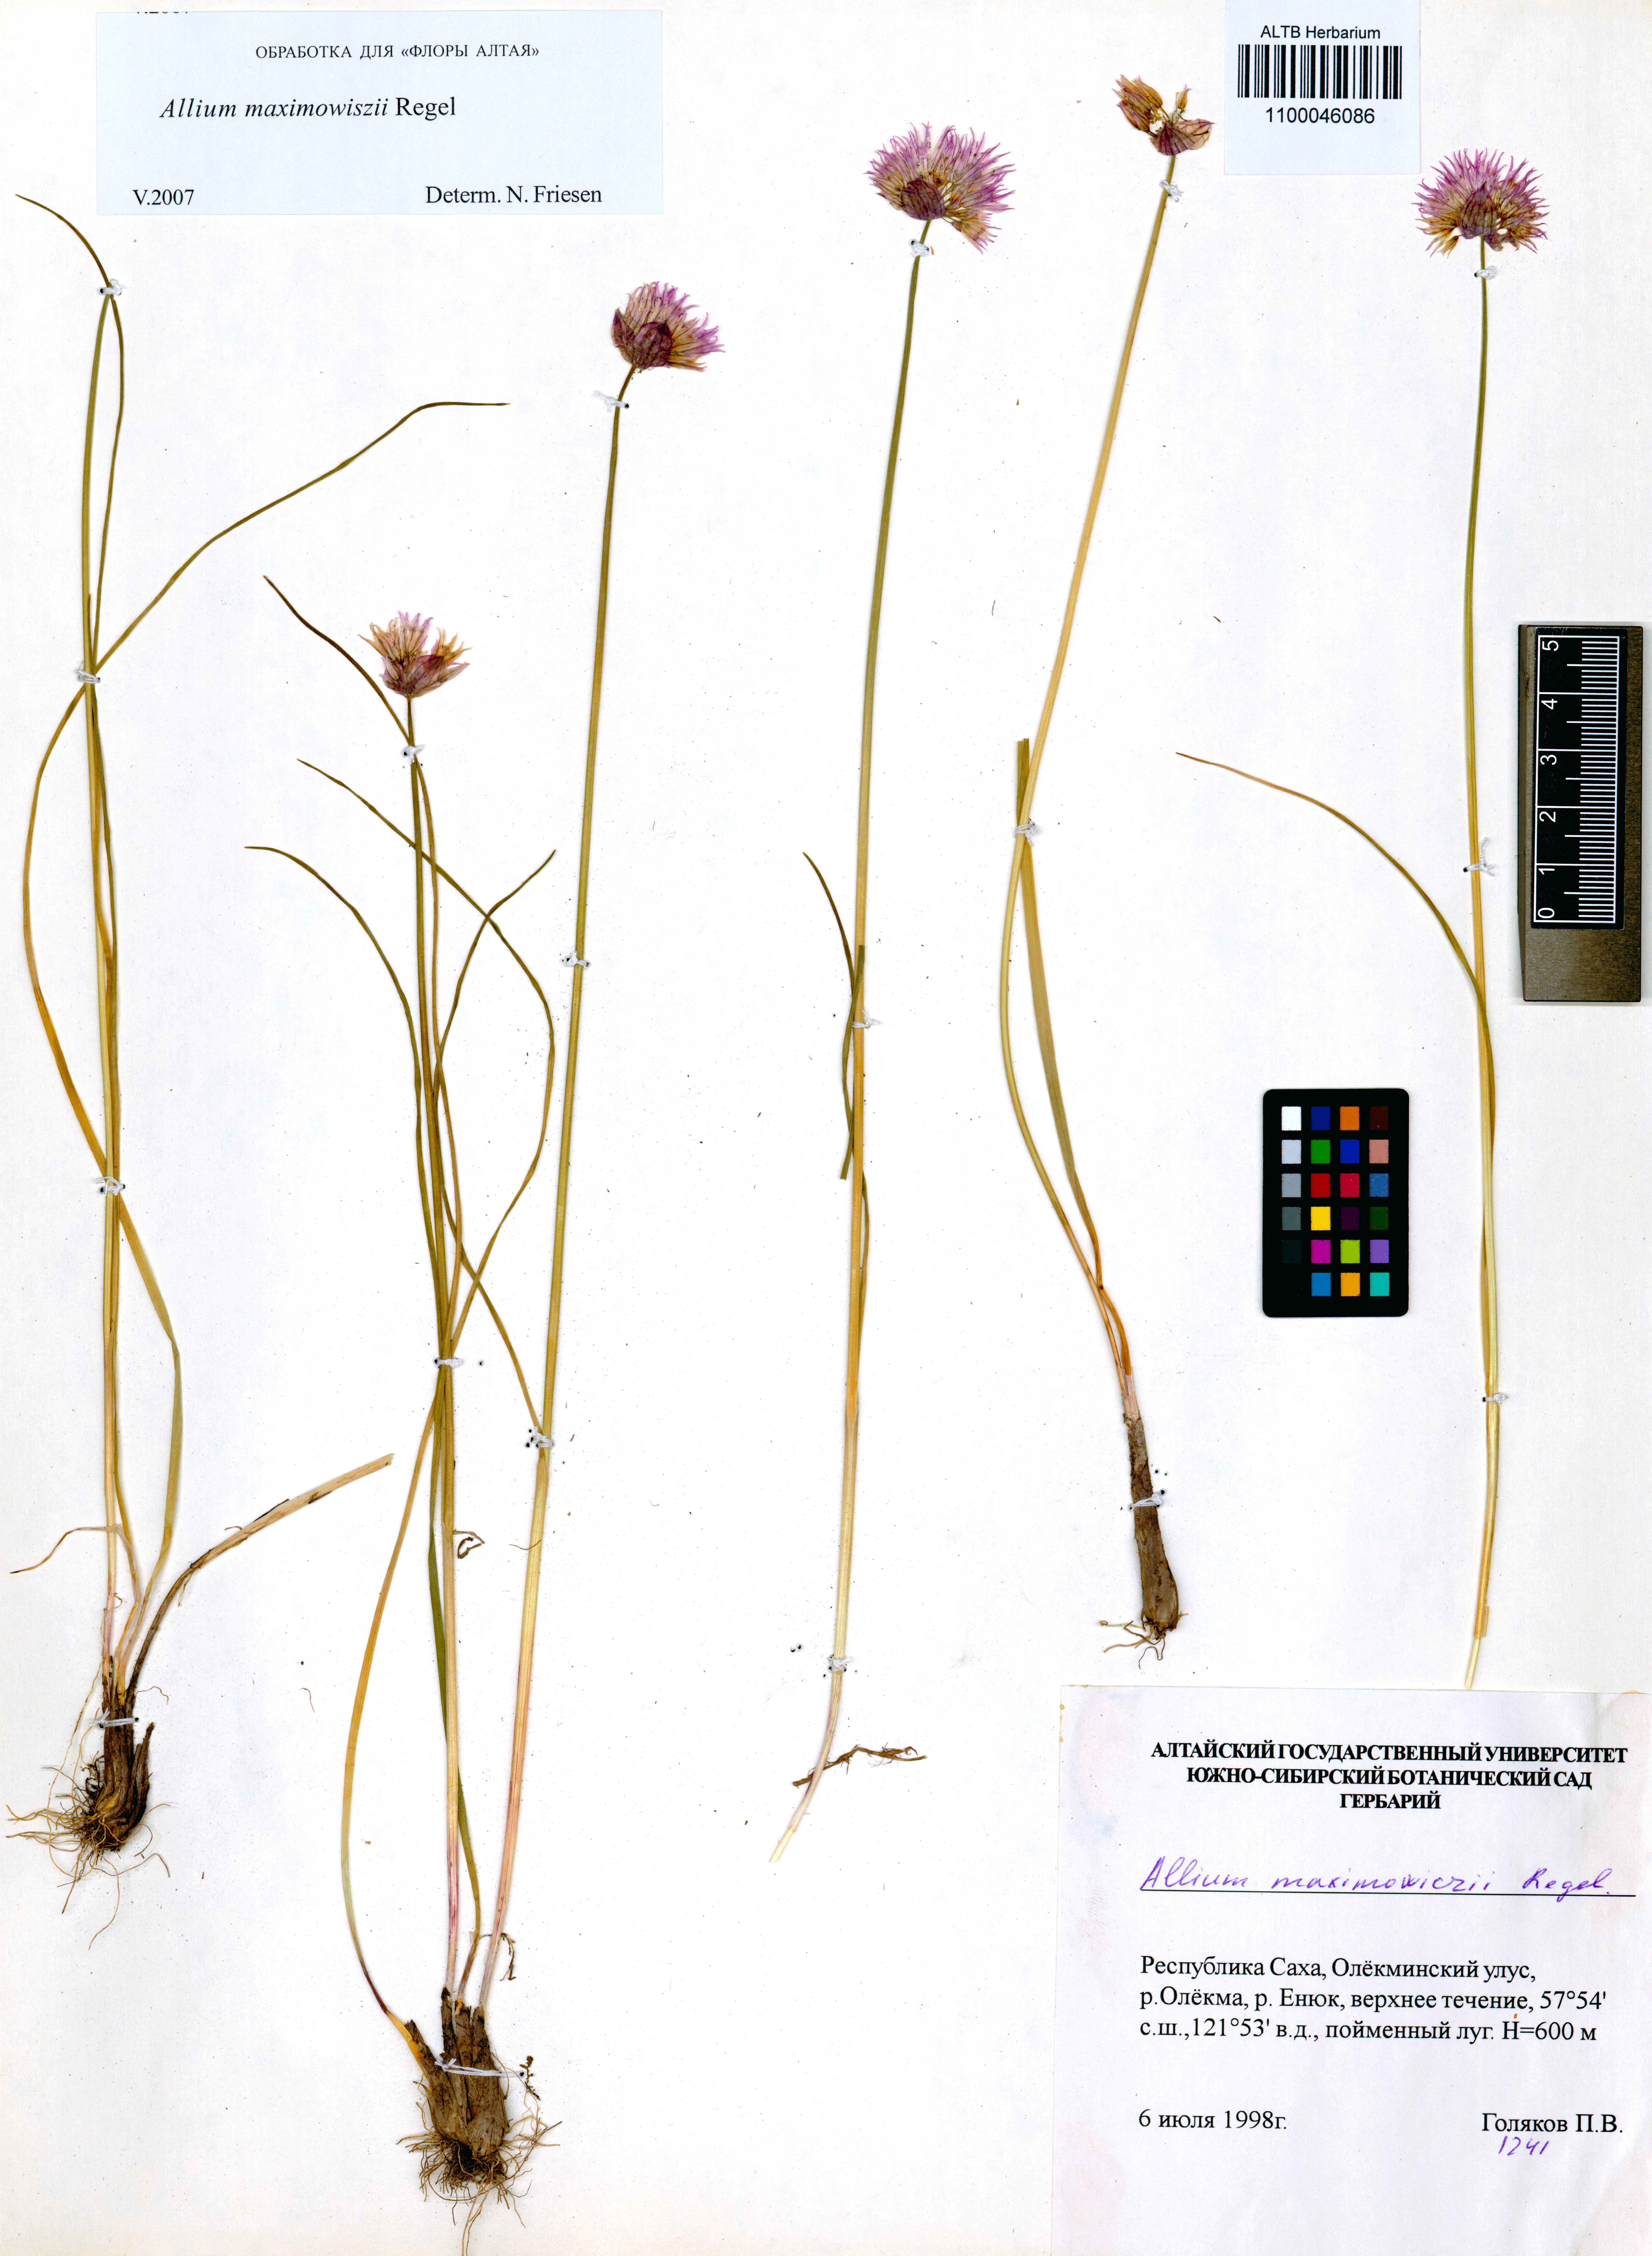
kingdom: Plantae
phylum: Tracheophyta
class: Liliopsida
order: Asparagales
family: Amaryllidaceae
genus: Allium
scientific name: Allium maximowiczii
